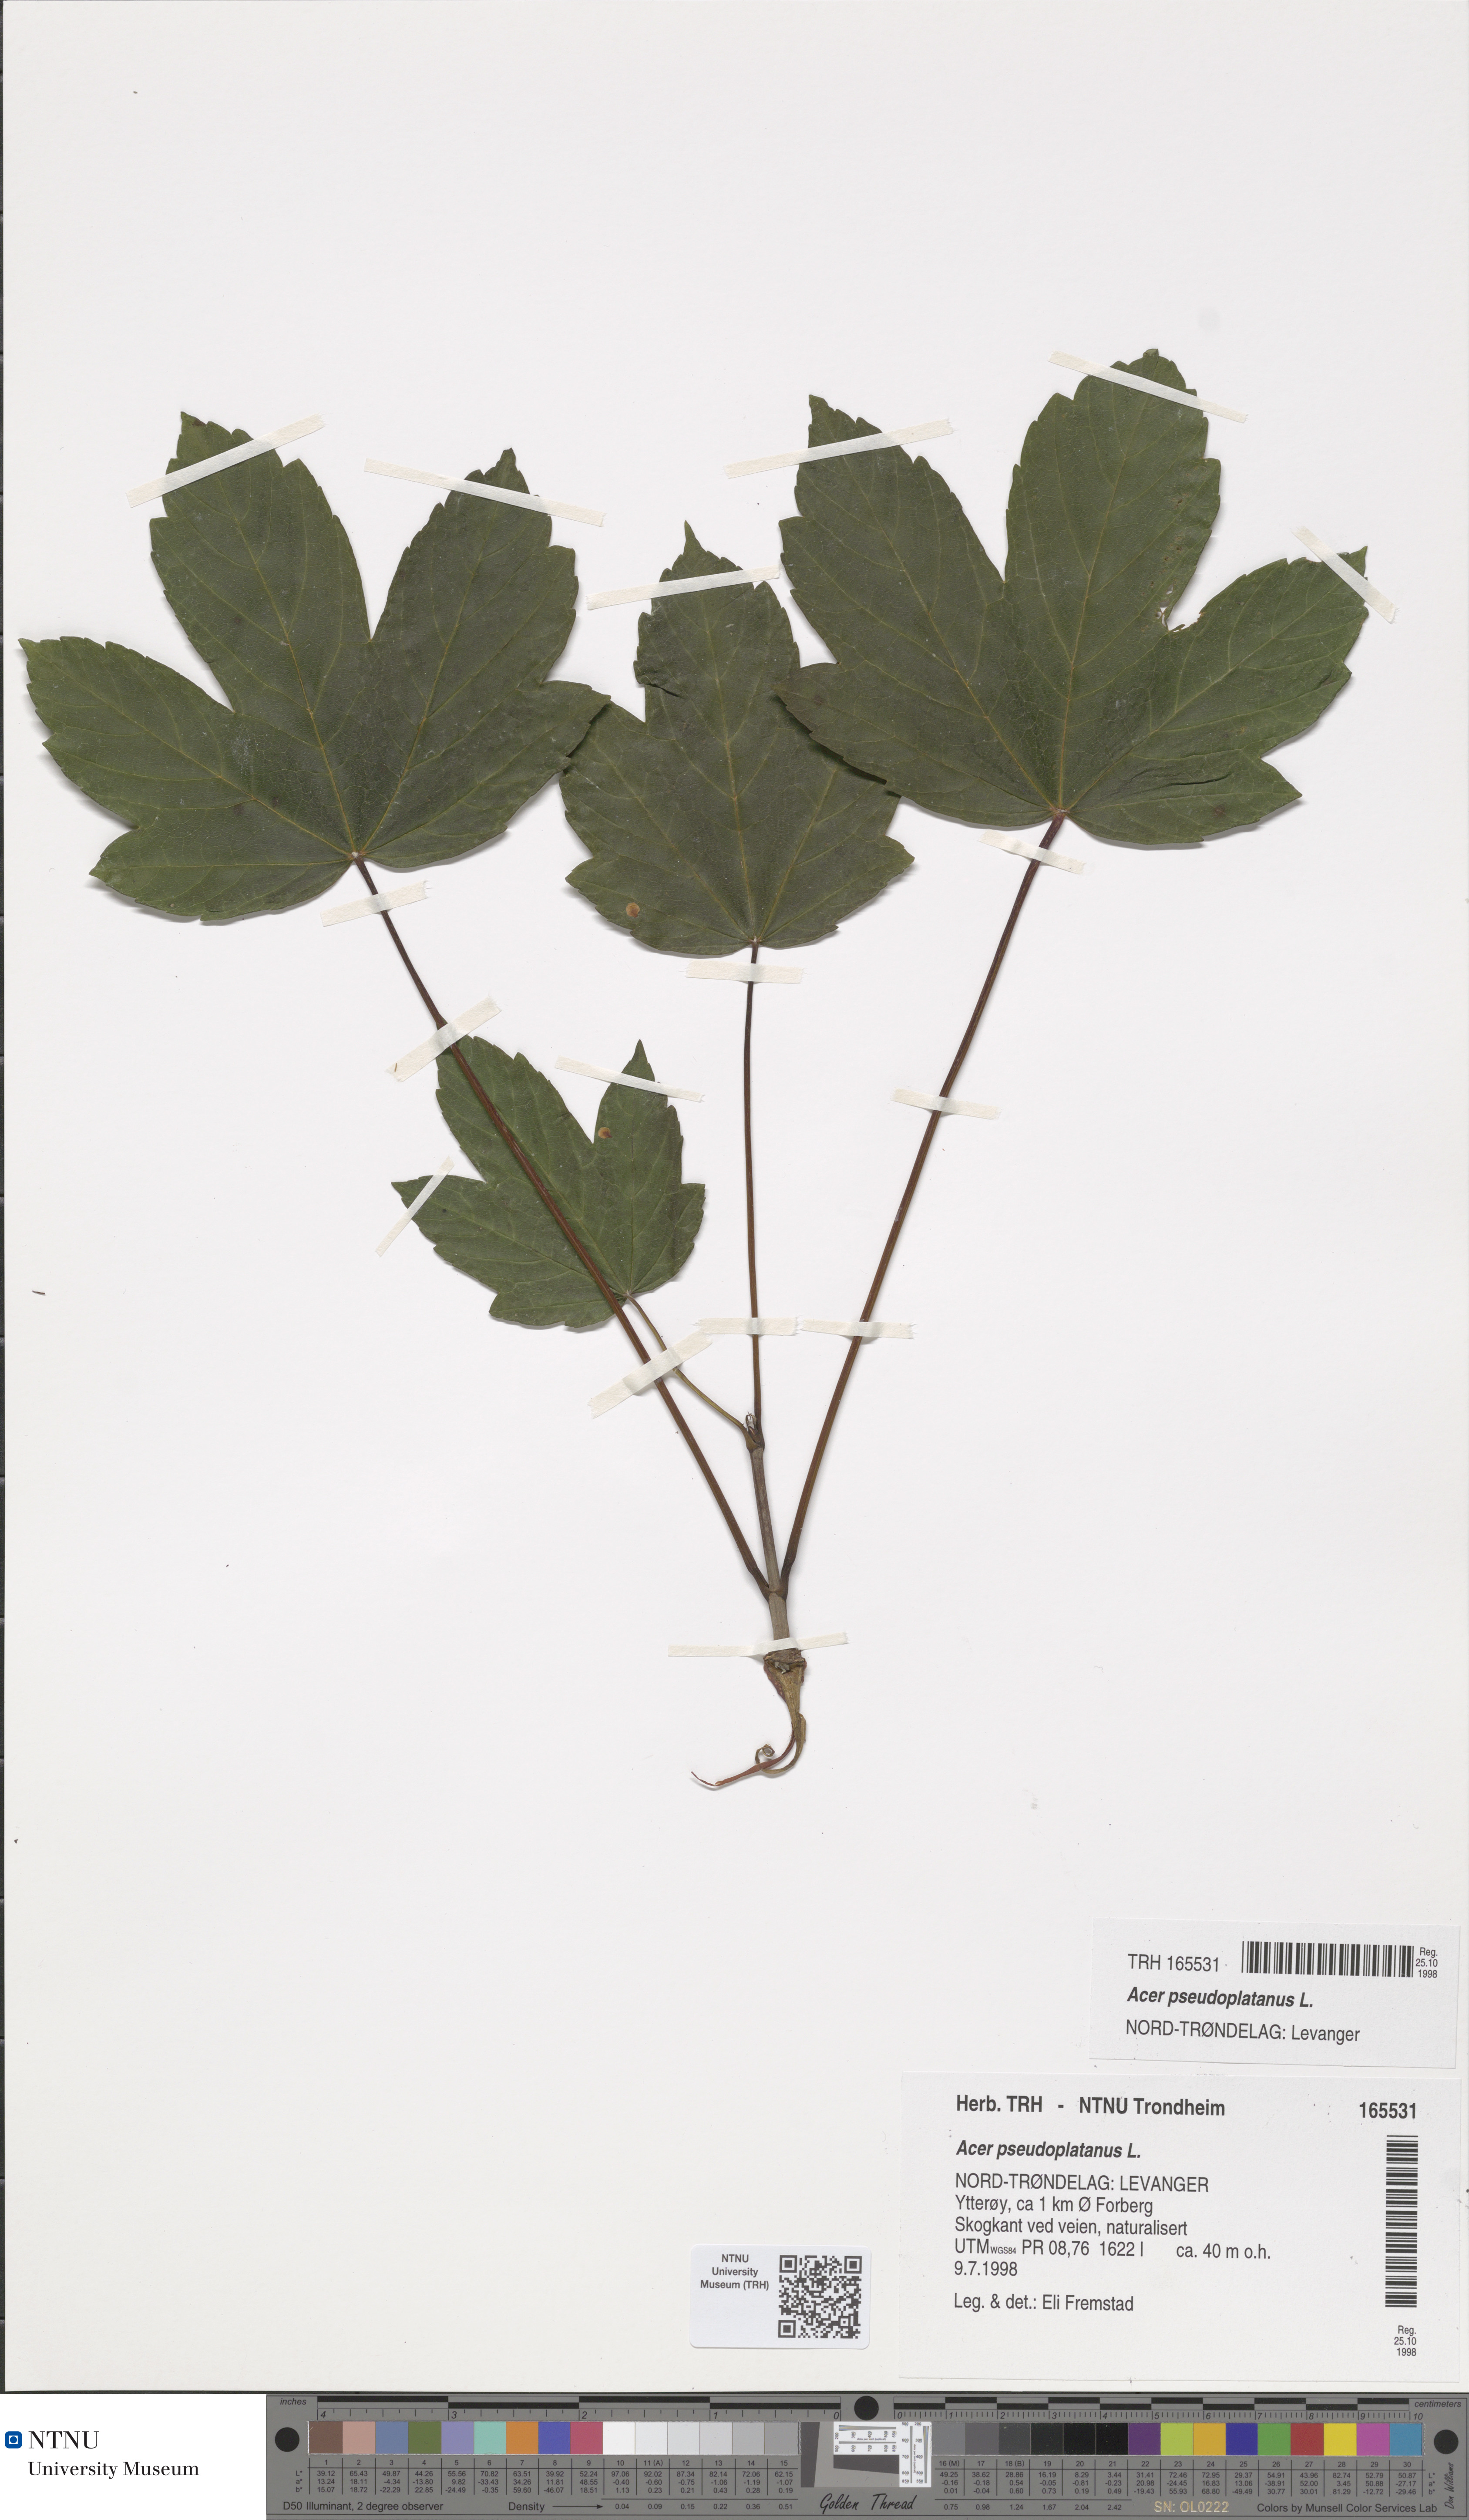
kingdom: Plantae
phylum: Tracheophyta
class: Magnoliopsida
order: Sapindales
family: Sapindaceae
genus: Acer
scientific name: Acer pseudoplatanus
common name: Sycamore
